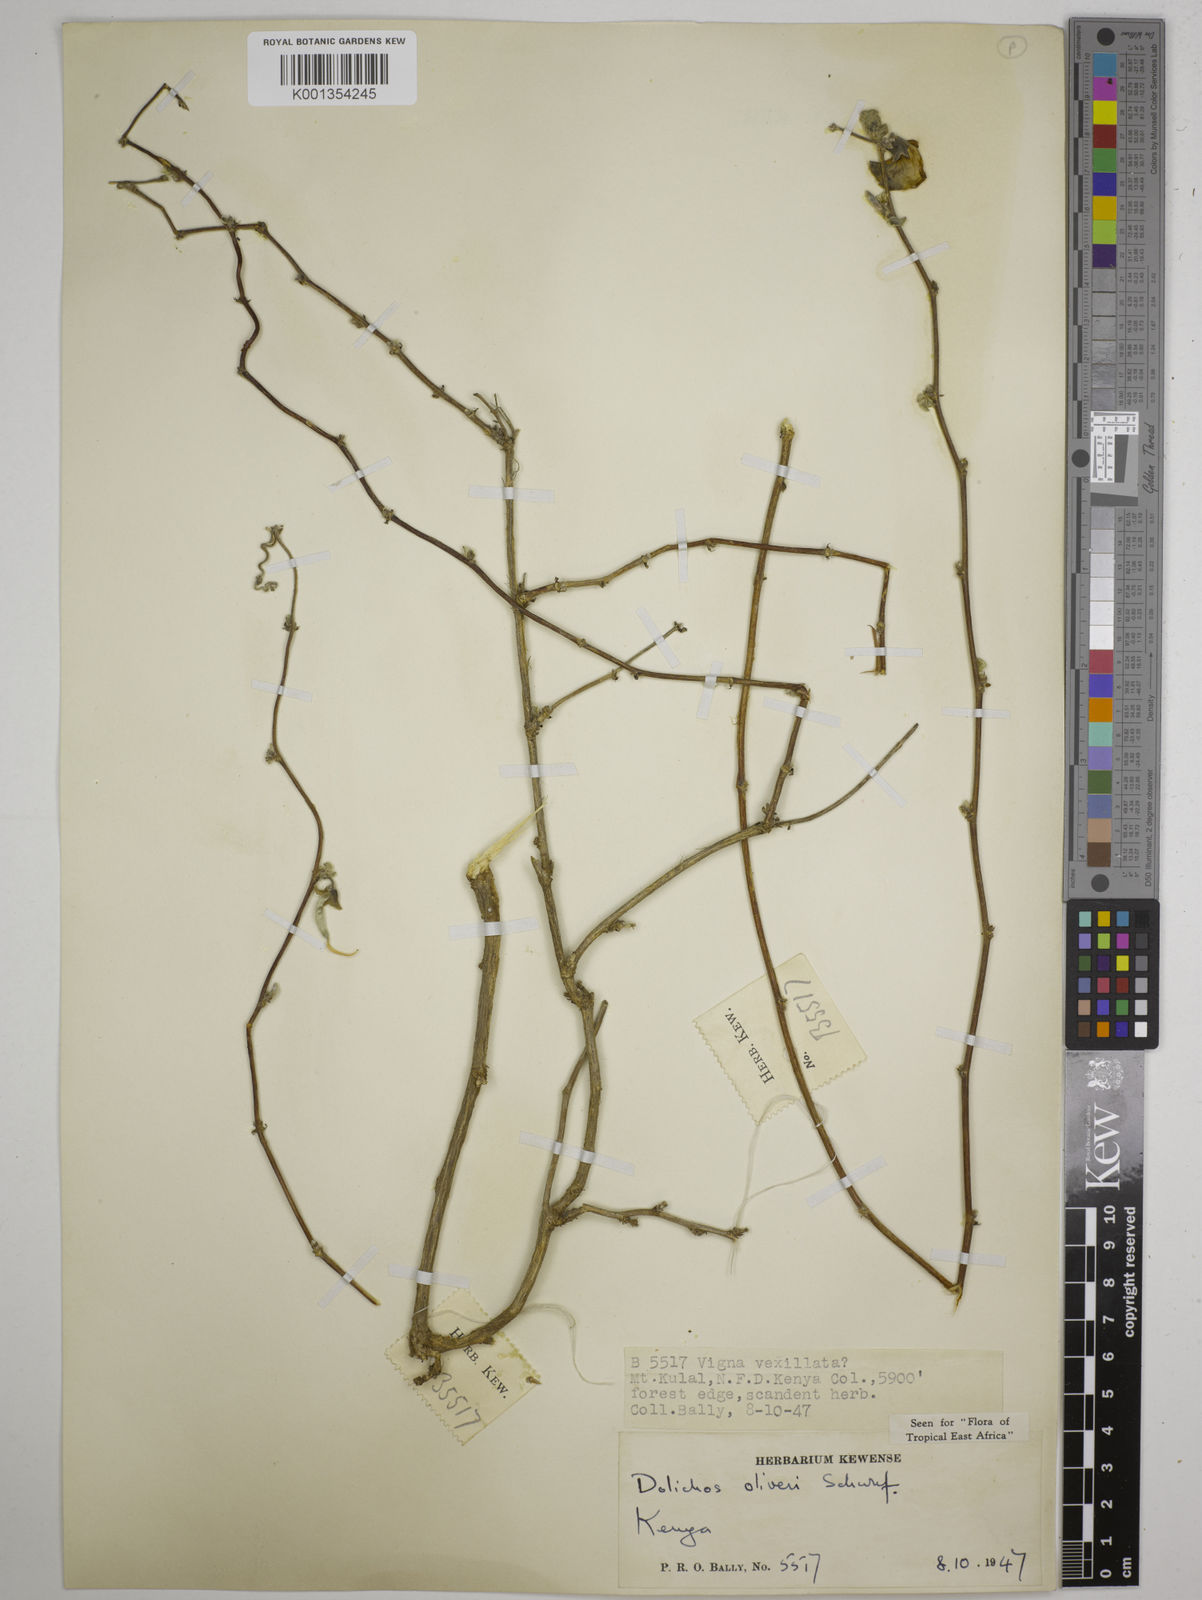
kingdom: Plantae
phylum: Tracheophyta
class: Magnoliopsida
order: Fabales
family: Fabaceae
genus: Dolichos
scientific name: Dolichos oliveri
